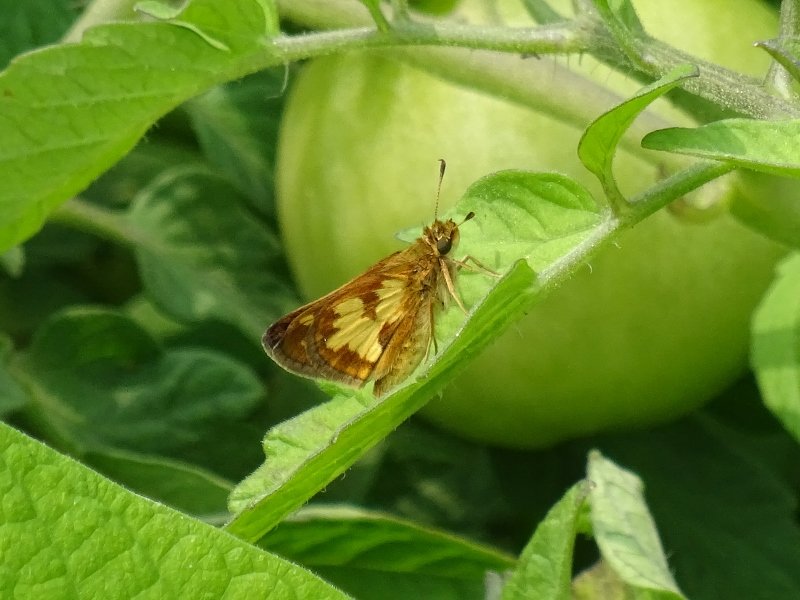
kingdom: Animalia
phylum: Arthropoda
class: Insecta
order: Lepidoptera
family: Hesperiidae
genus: Polites
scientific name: Polites coras
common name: Peck's Skipper
